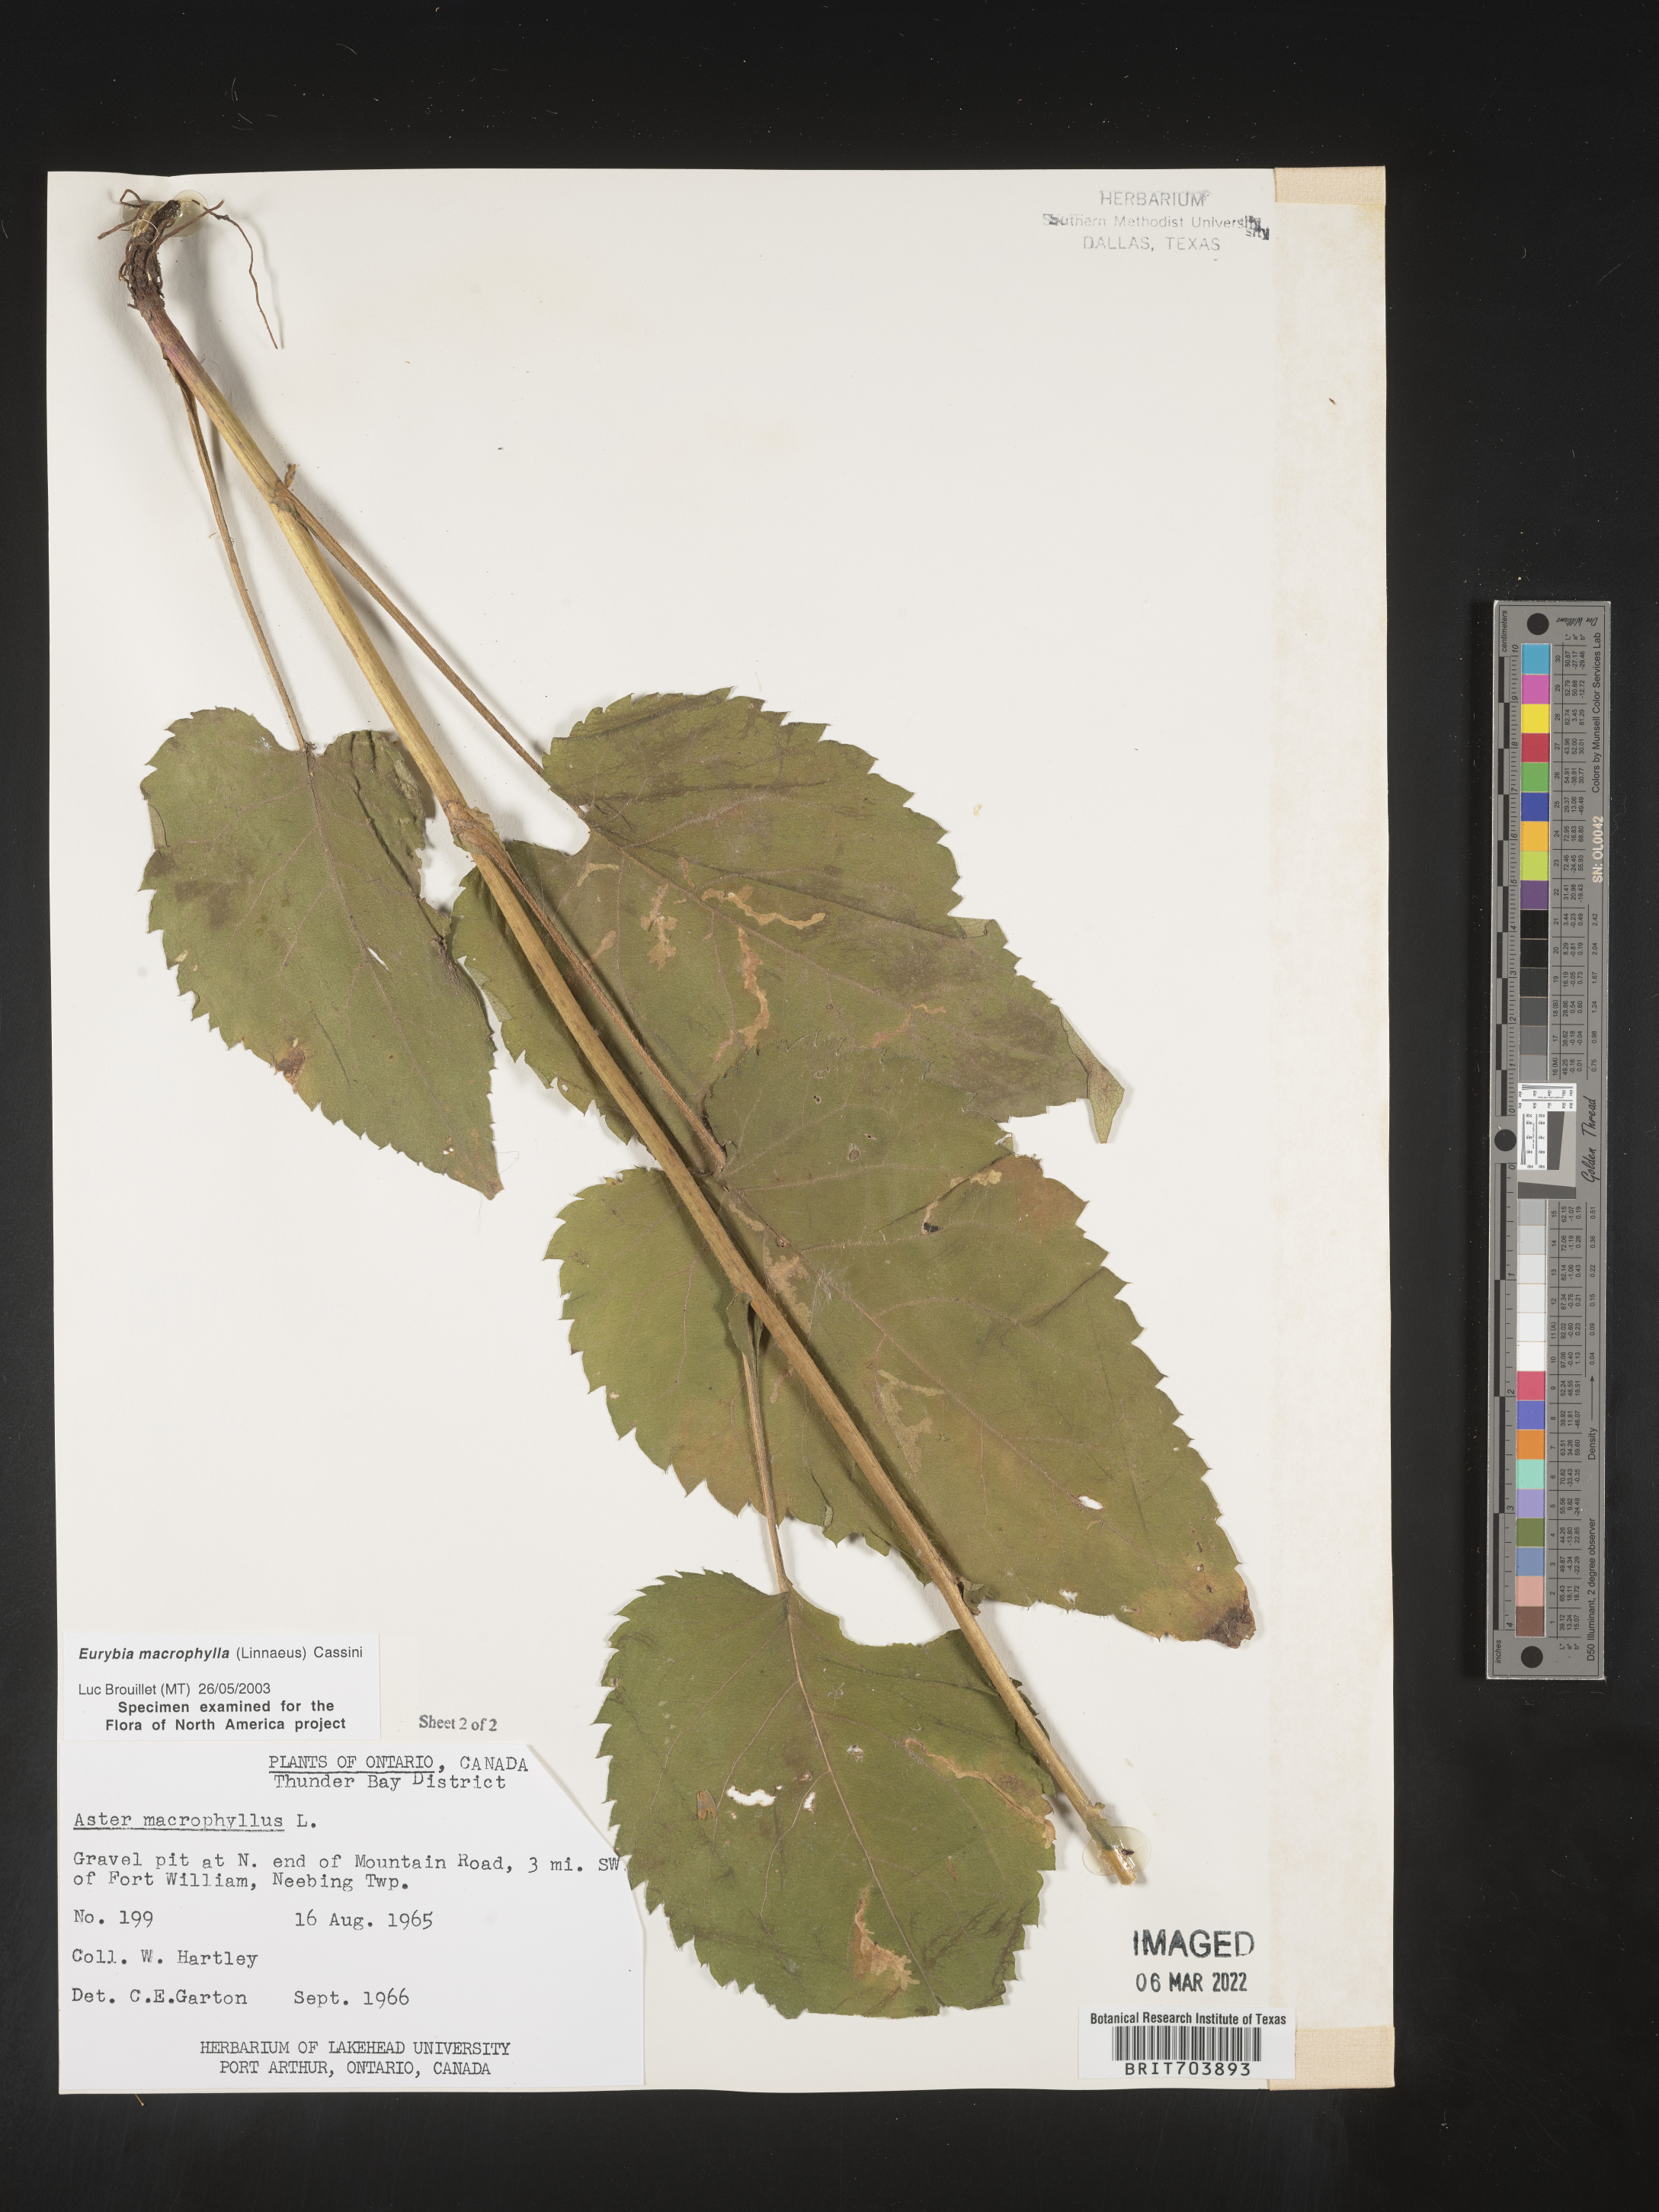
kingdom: Plantae
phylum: Tracheophyta
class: Magnoliopsida
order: Asterales
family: Asteraceae
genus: Eurybia
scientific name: Eurybia macrophylla
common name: Big-leaved aster
